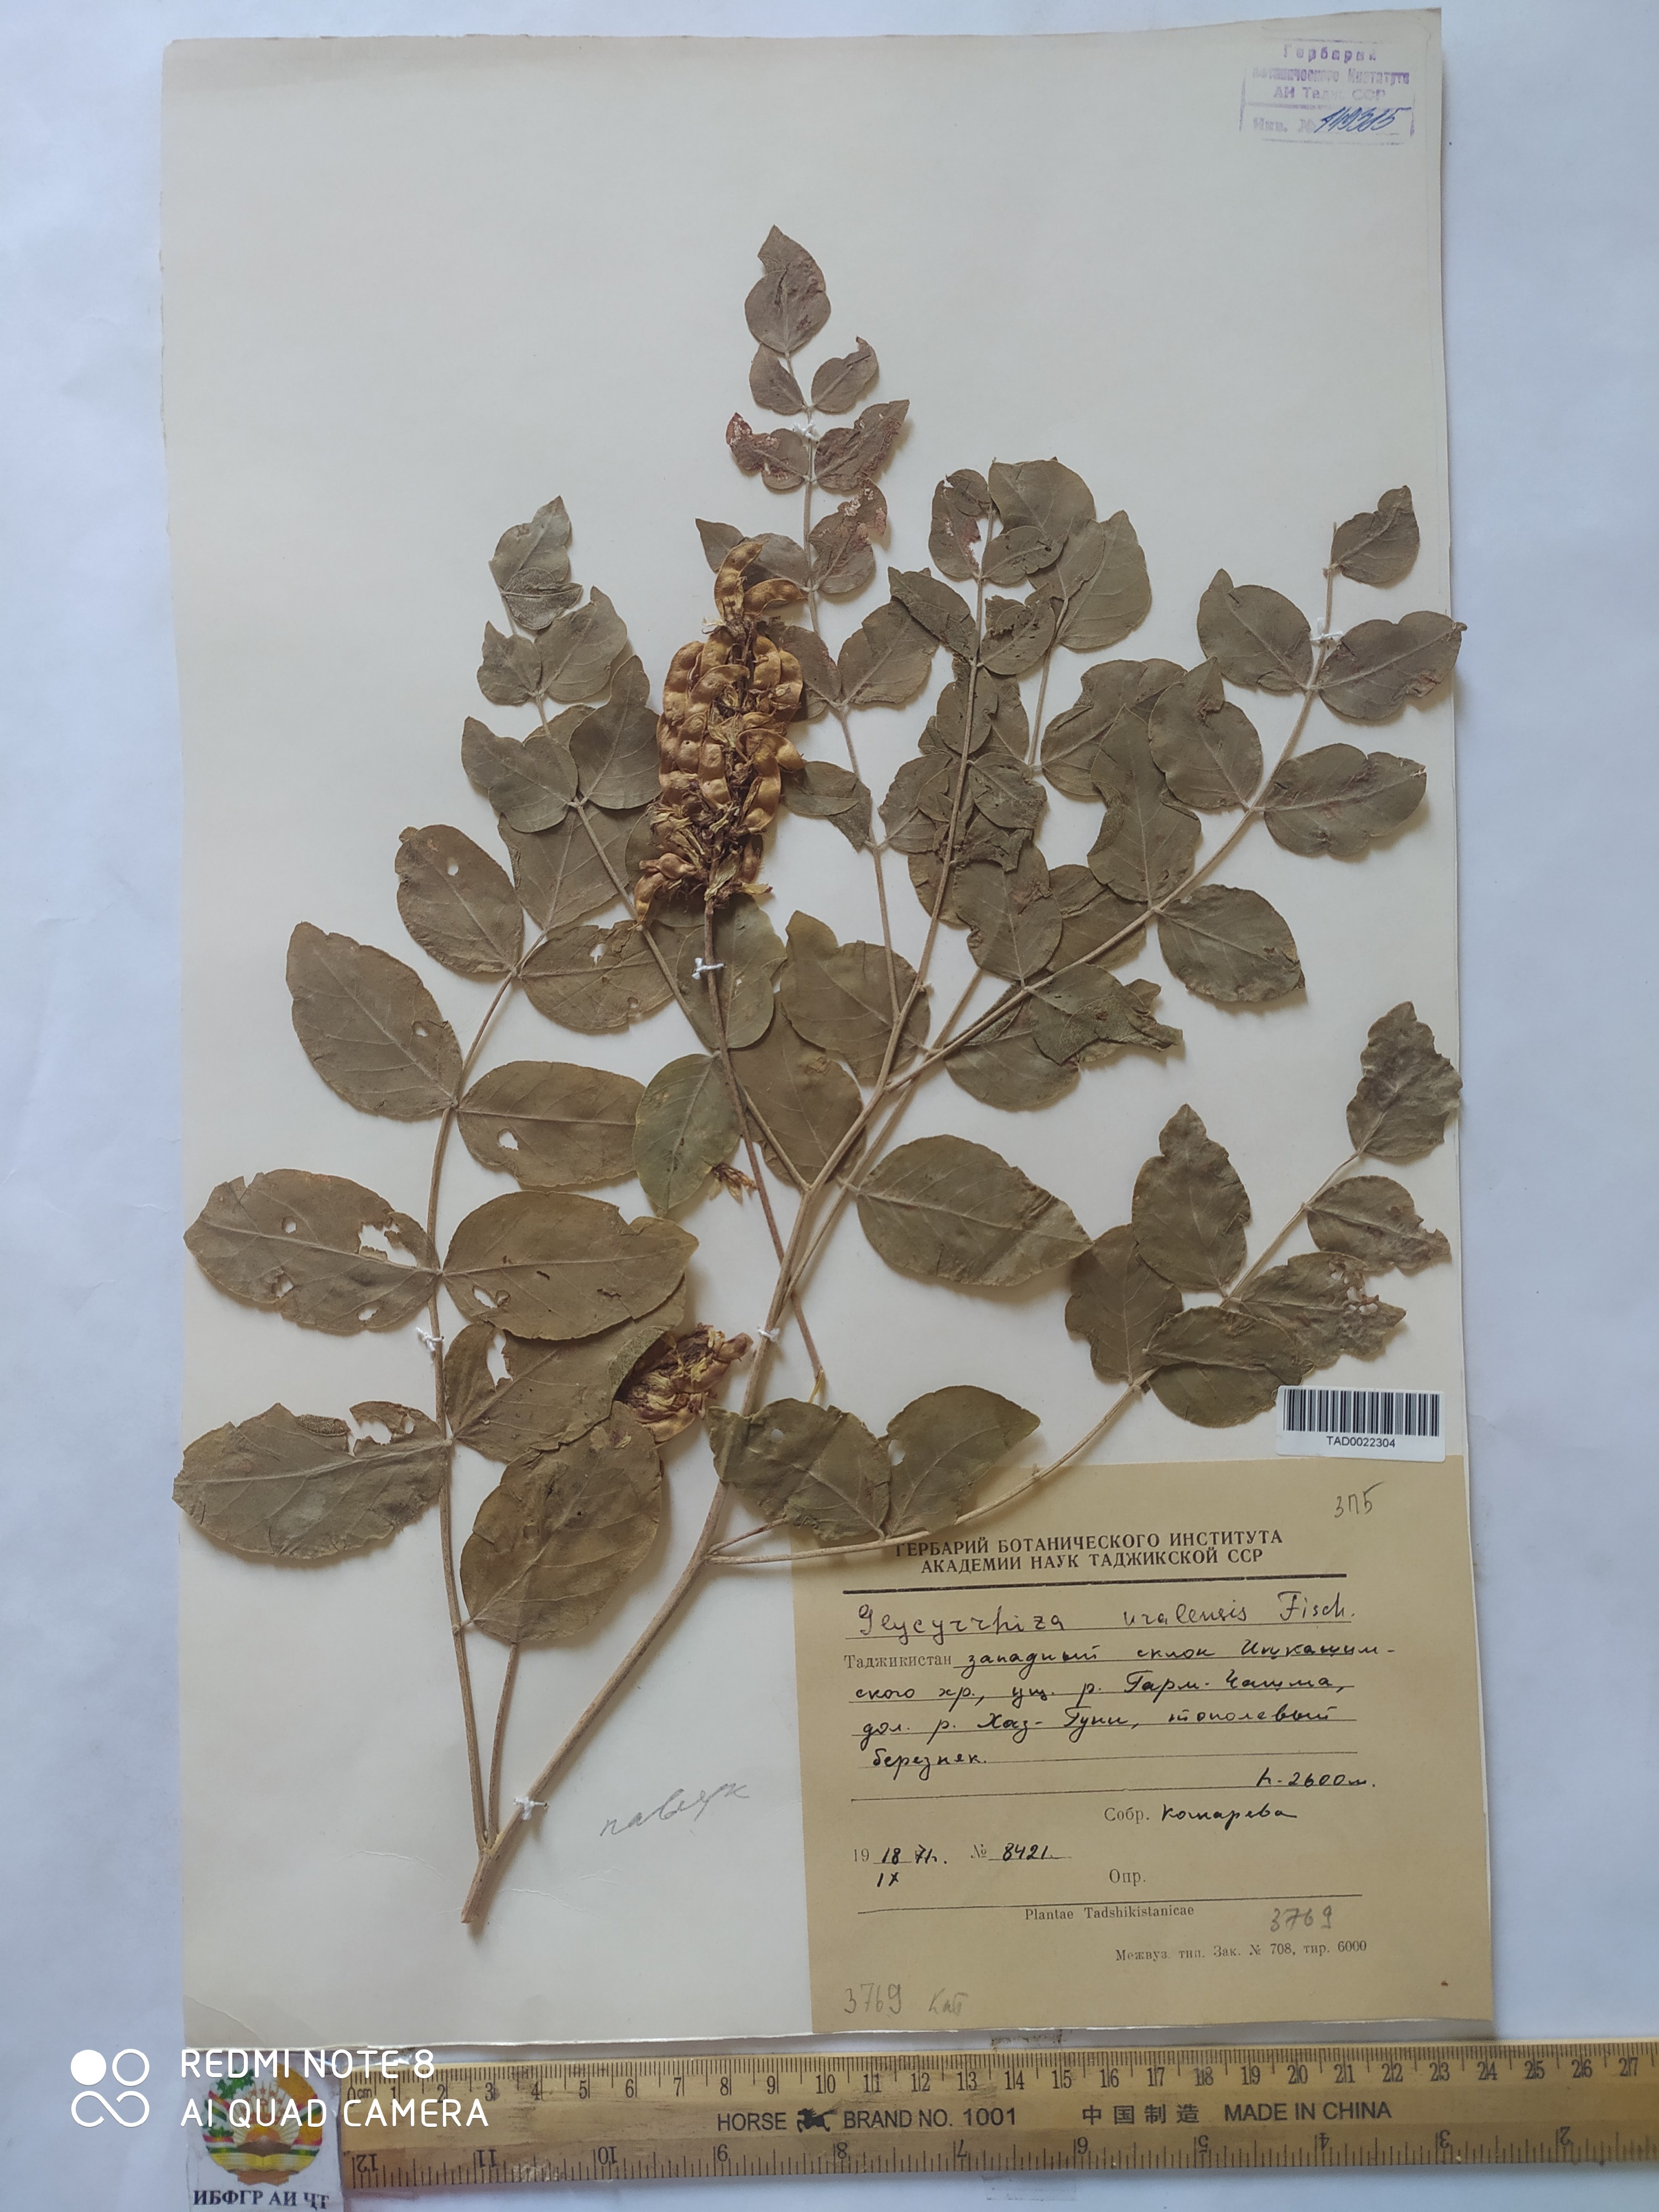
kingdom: Plantae
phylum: Tracheophyta
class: Magnoliopsida
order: Fabales
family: Fabaceae
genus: Glycyrrhiza
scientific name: Glycyrrhiza uralensis
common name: Chinese licorice
